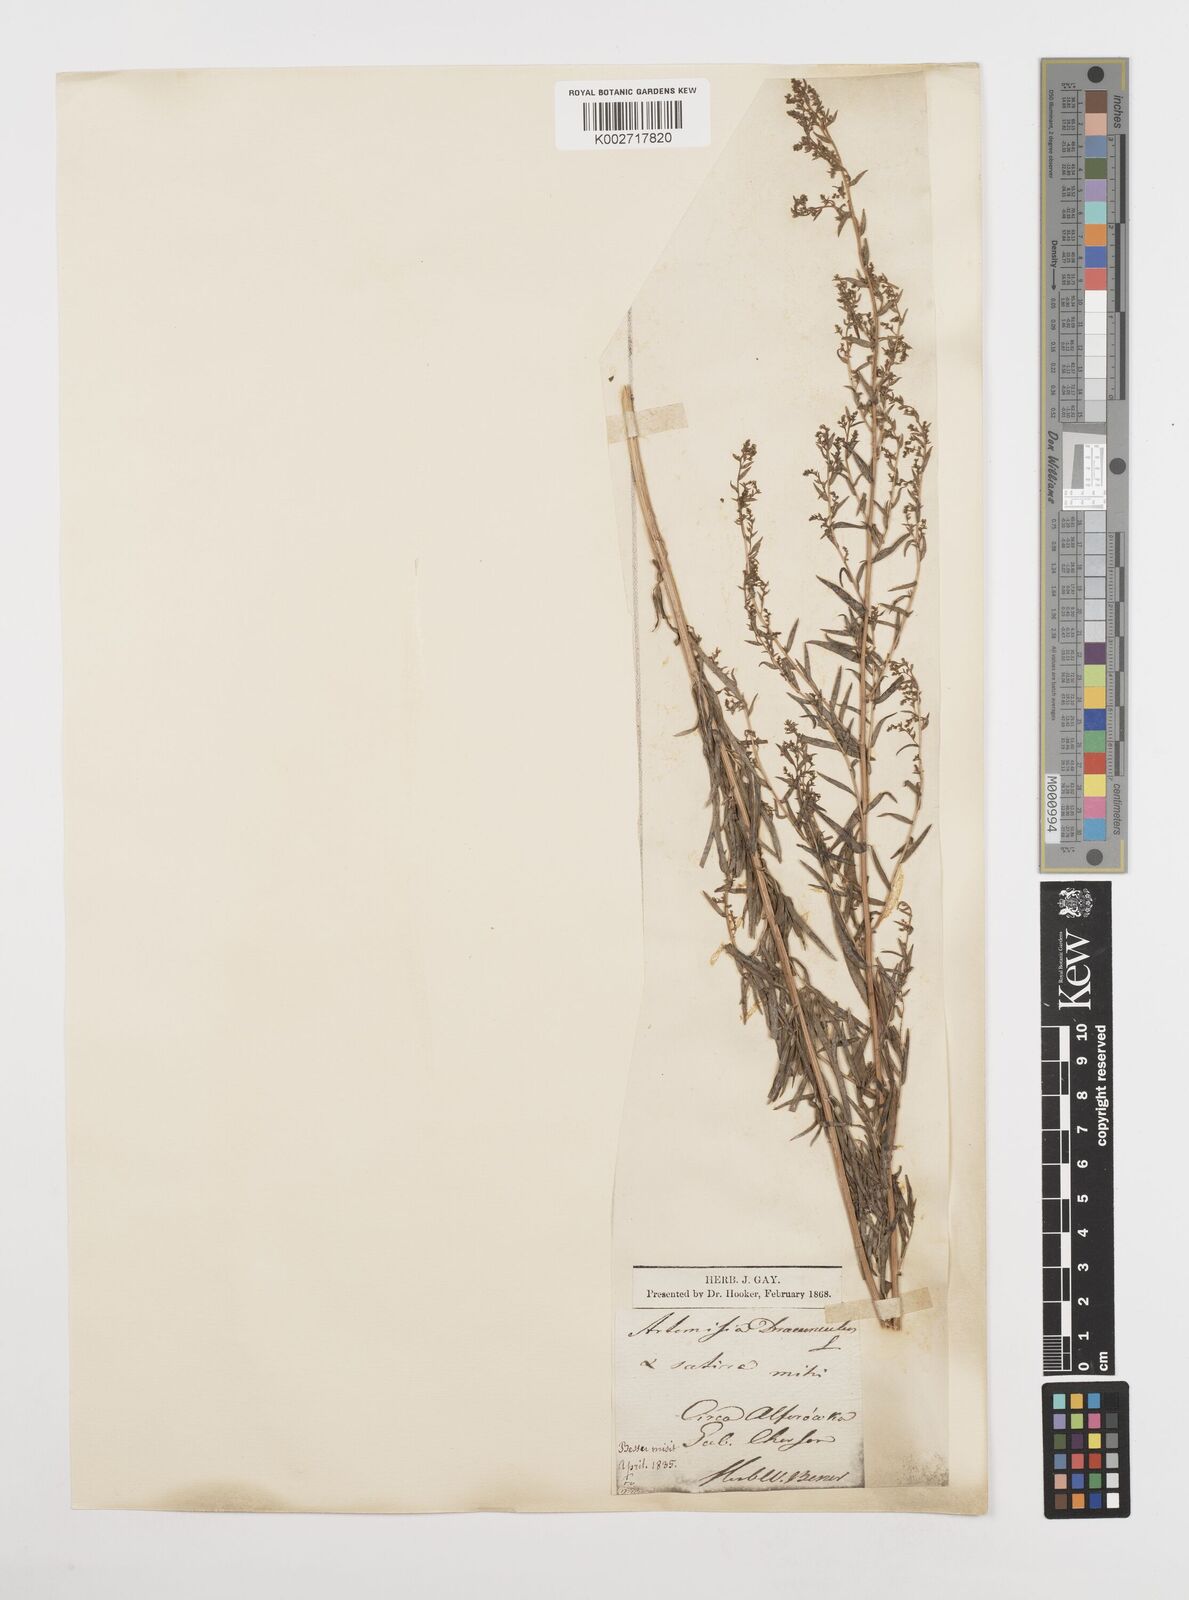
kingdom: Plantae
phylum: Tracheophyta
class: Magnoliopsida
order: Asterales
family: Asteraceae
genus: Artemisia
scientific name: Artemisia dracunculus
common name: Tarragon
